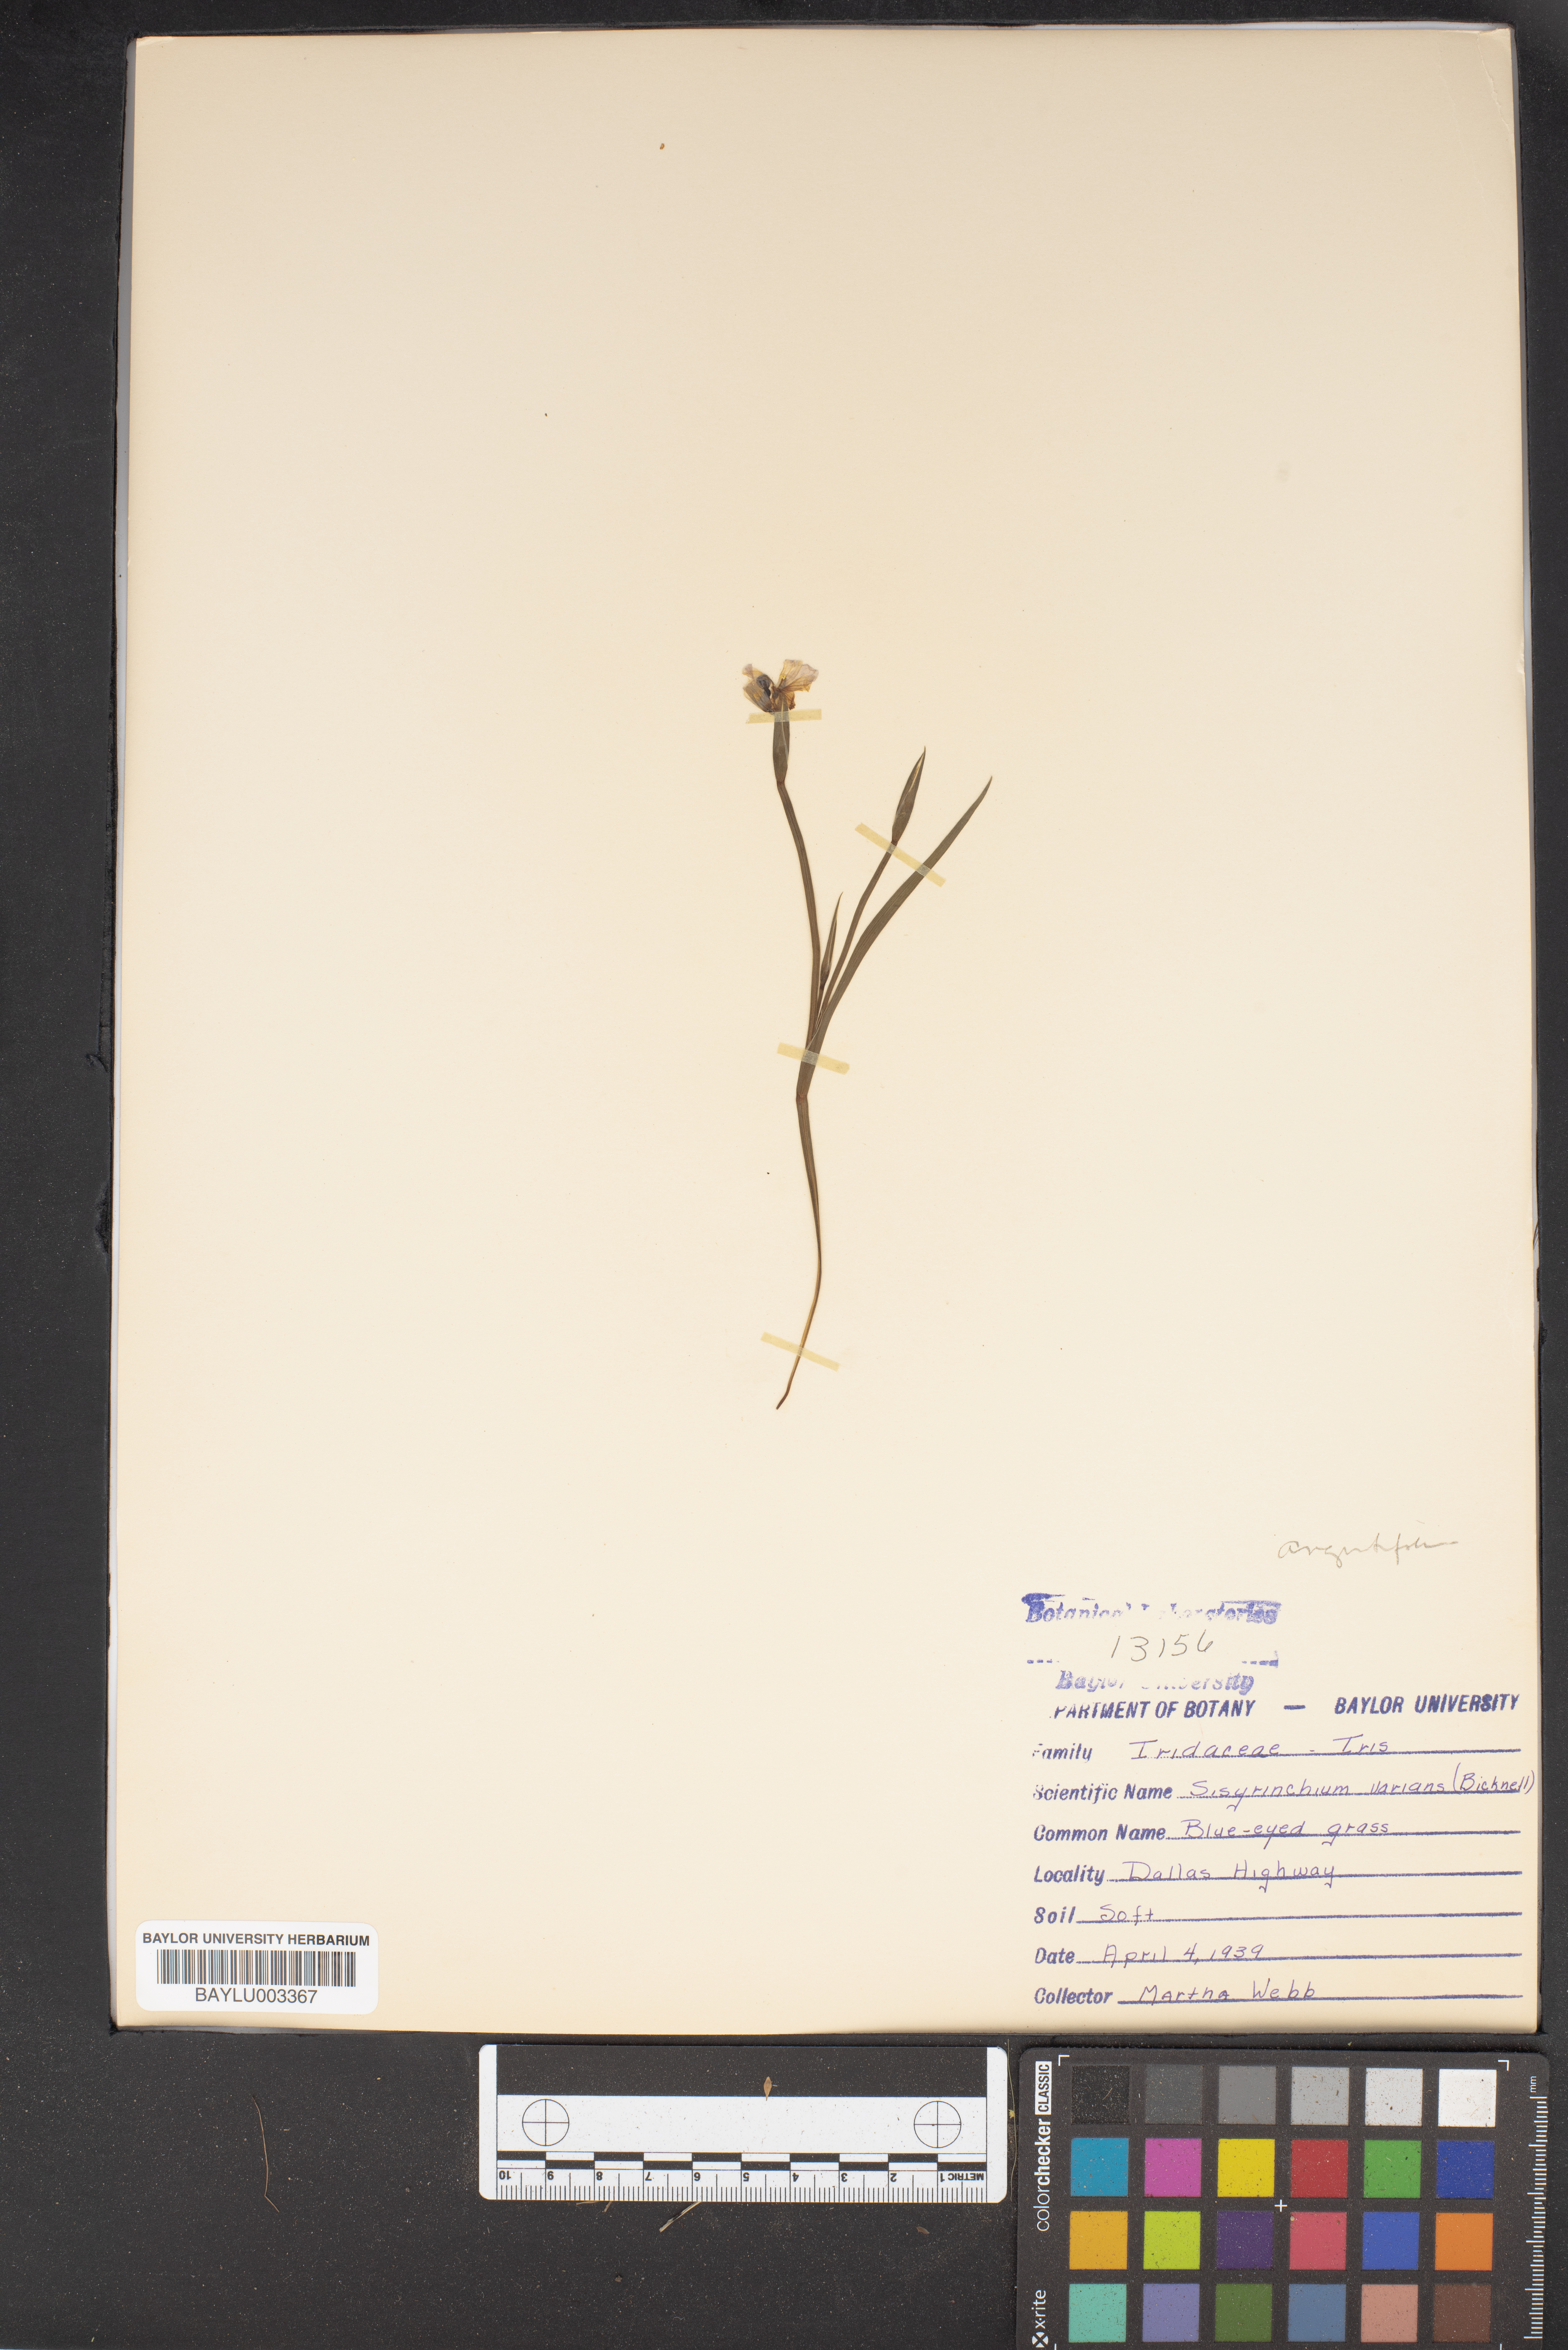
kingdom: Plantae
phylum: Tracheophyta
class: Liliopsida
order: Asparagales
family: Iridaceae
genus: Sisyrinchium
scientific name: Sisyrinchium pruinosum
